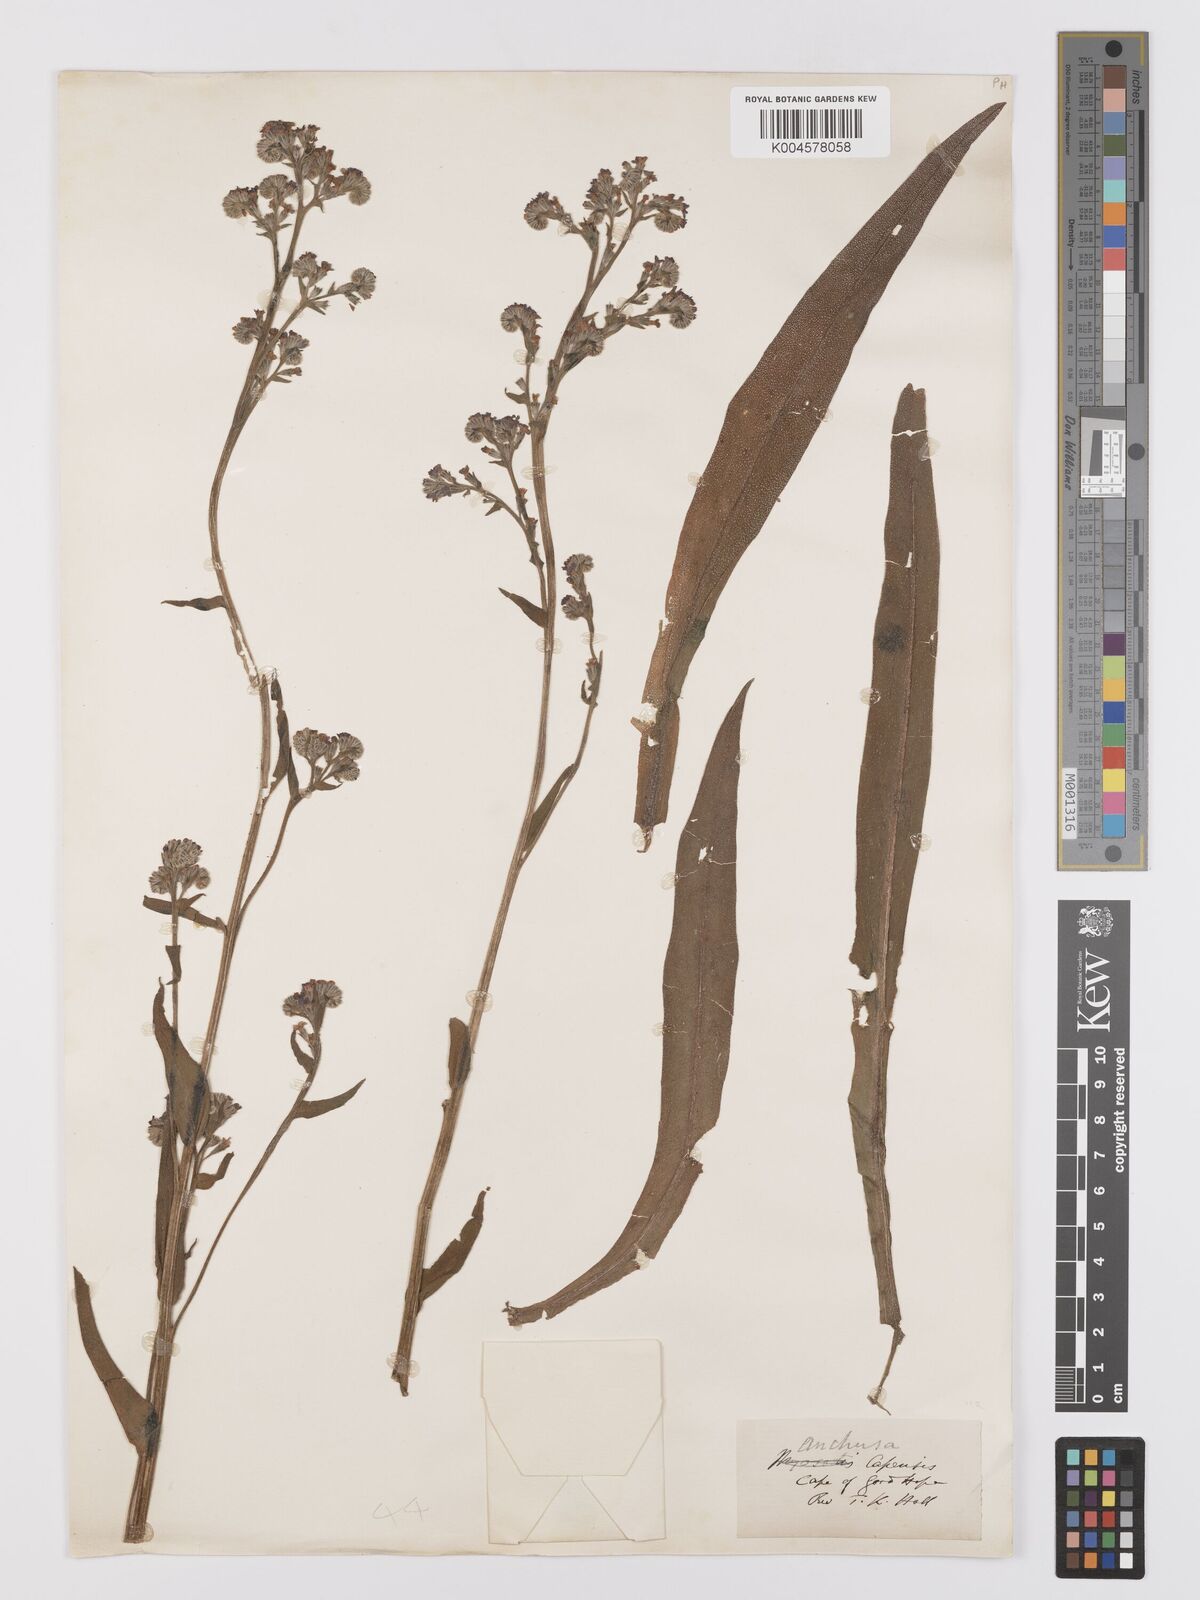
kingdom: Plantae
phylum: Tracheophyta
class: Magnoliopsida
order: Boraginales
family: Boraginaceae
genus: Anchusa
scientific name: Anchusa
